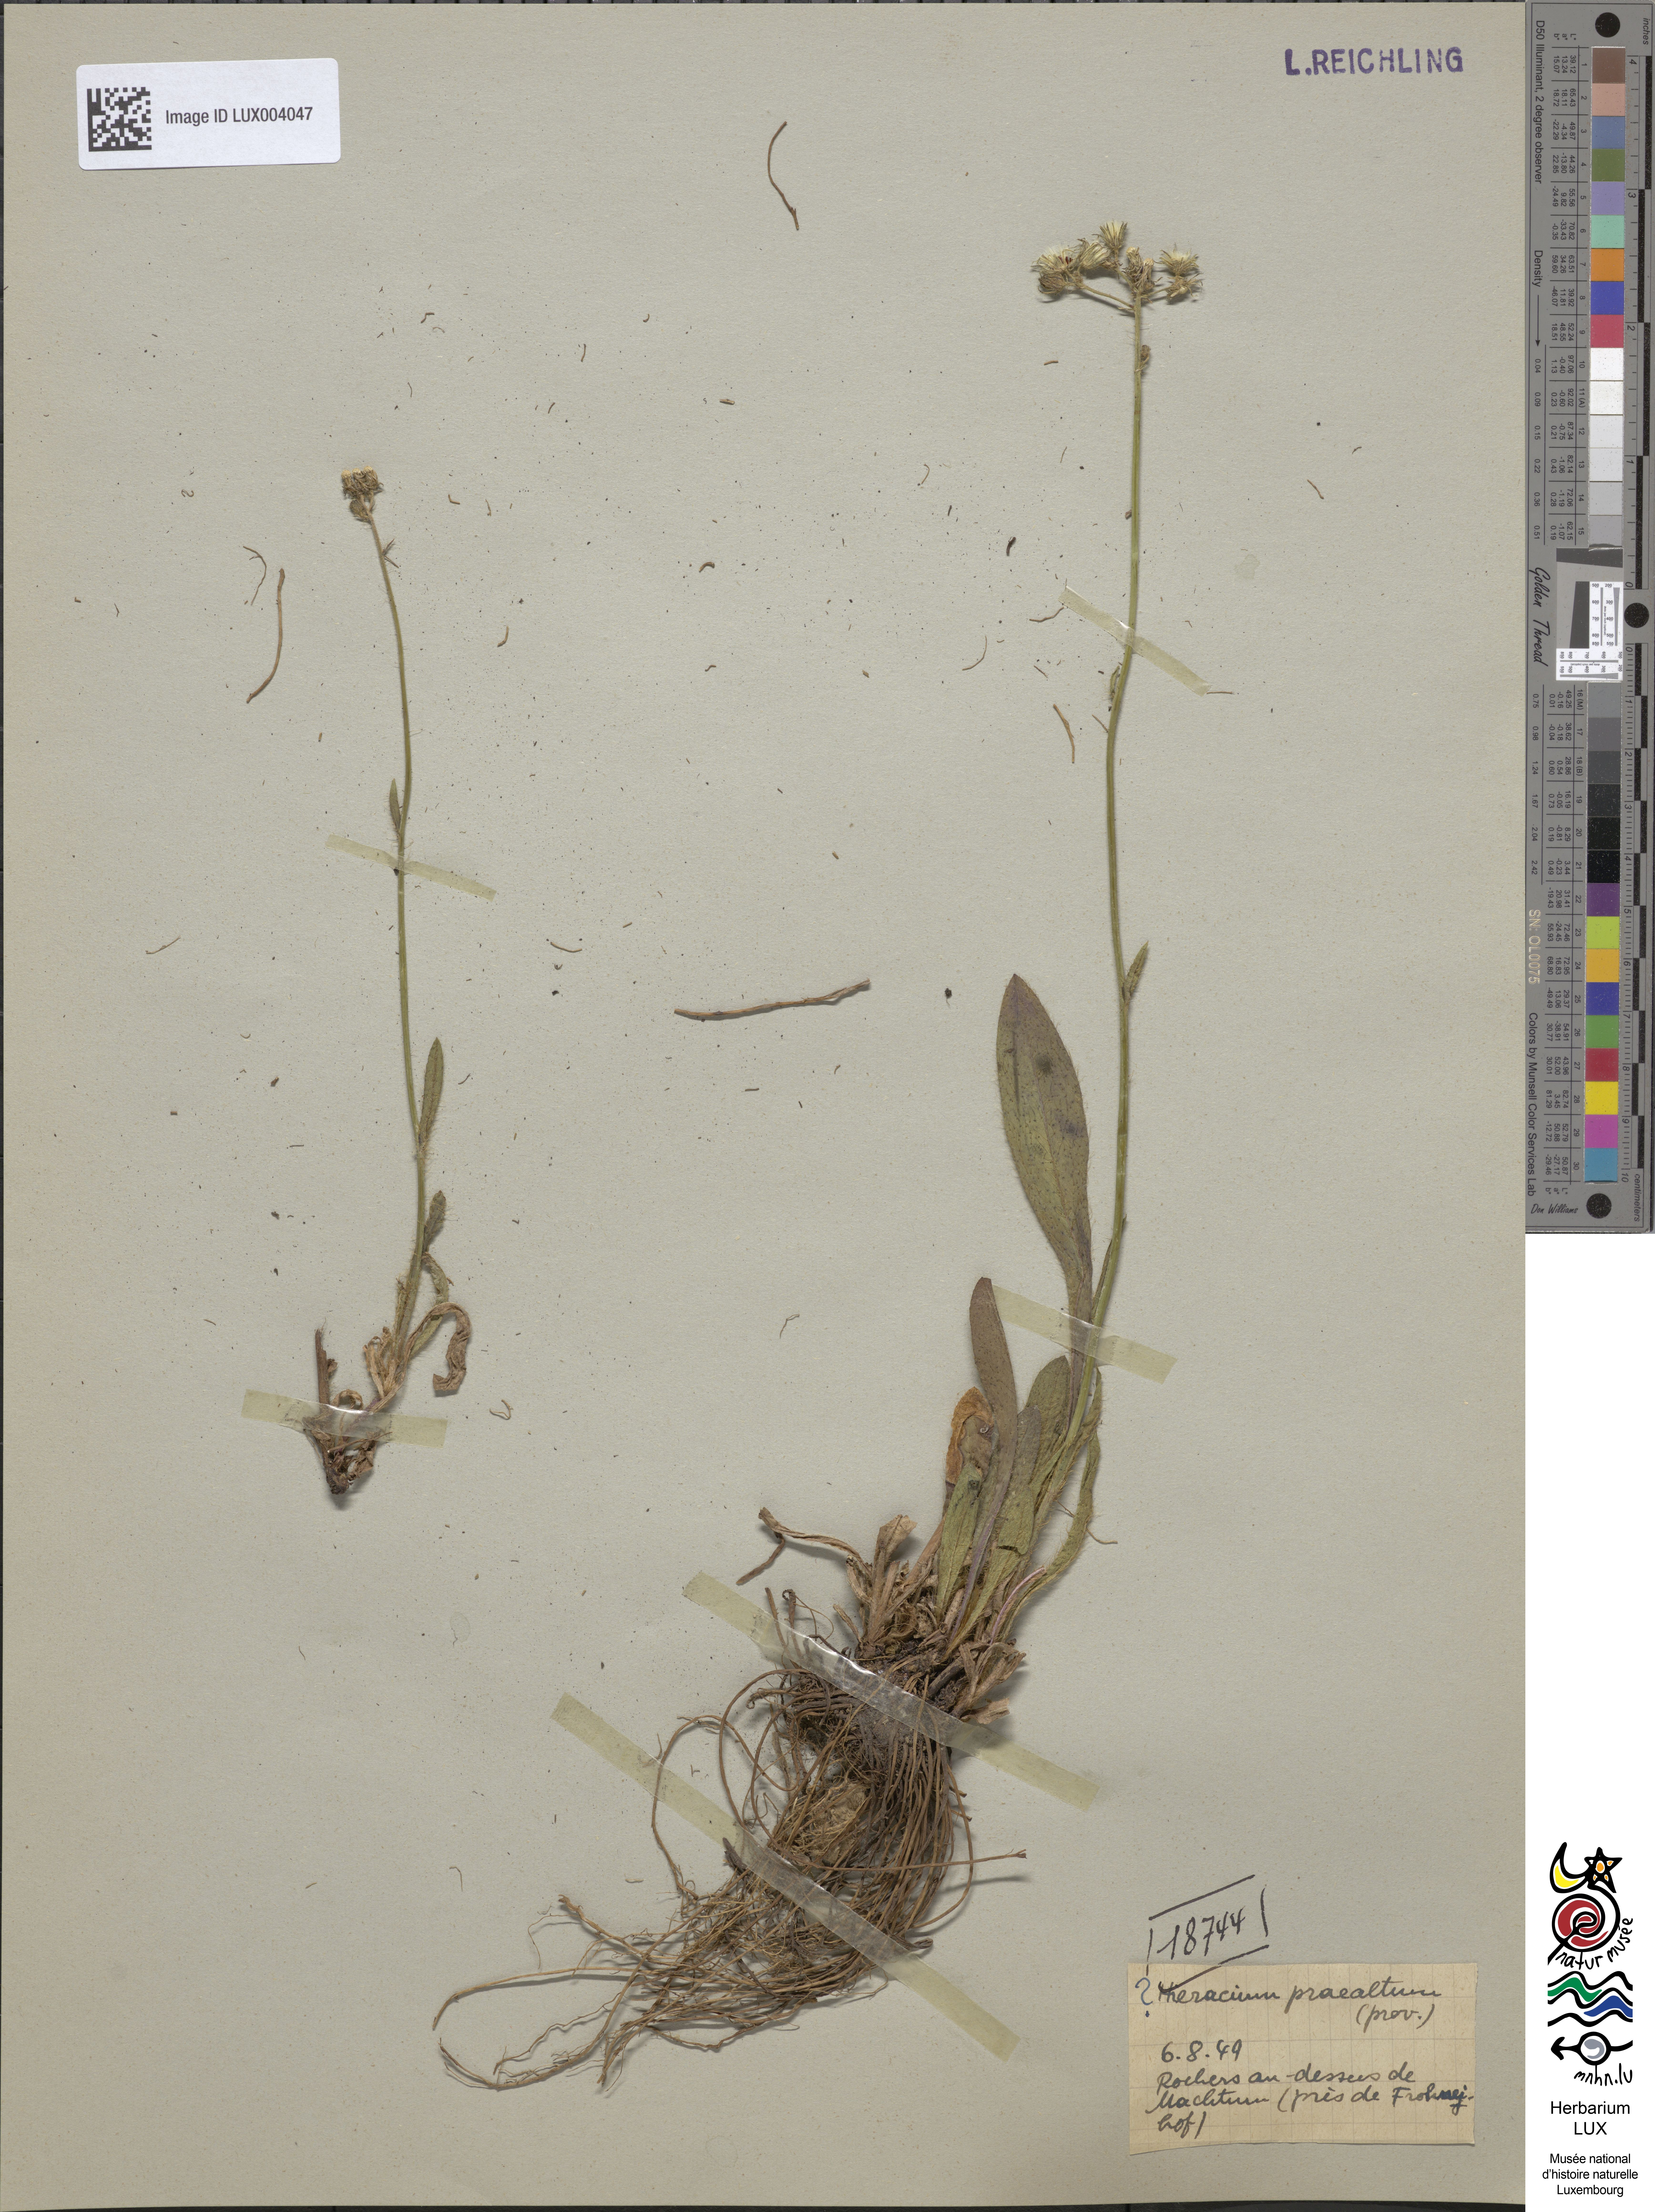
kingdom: Plantae
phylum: Tracheophyta
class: Magnoliopsida
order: Asterales
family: Asteraceae
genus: Pilosella
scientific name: Pilosella piloselloides
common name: Glaucous king-devil
